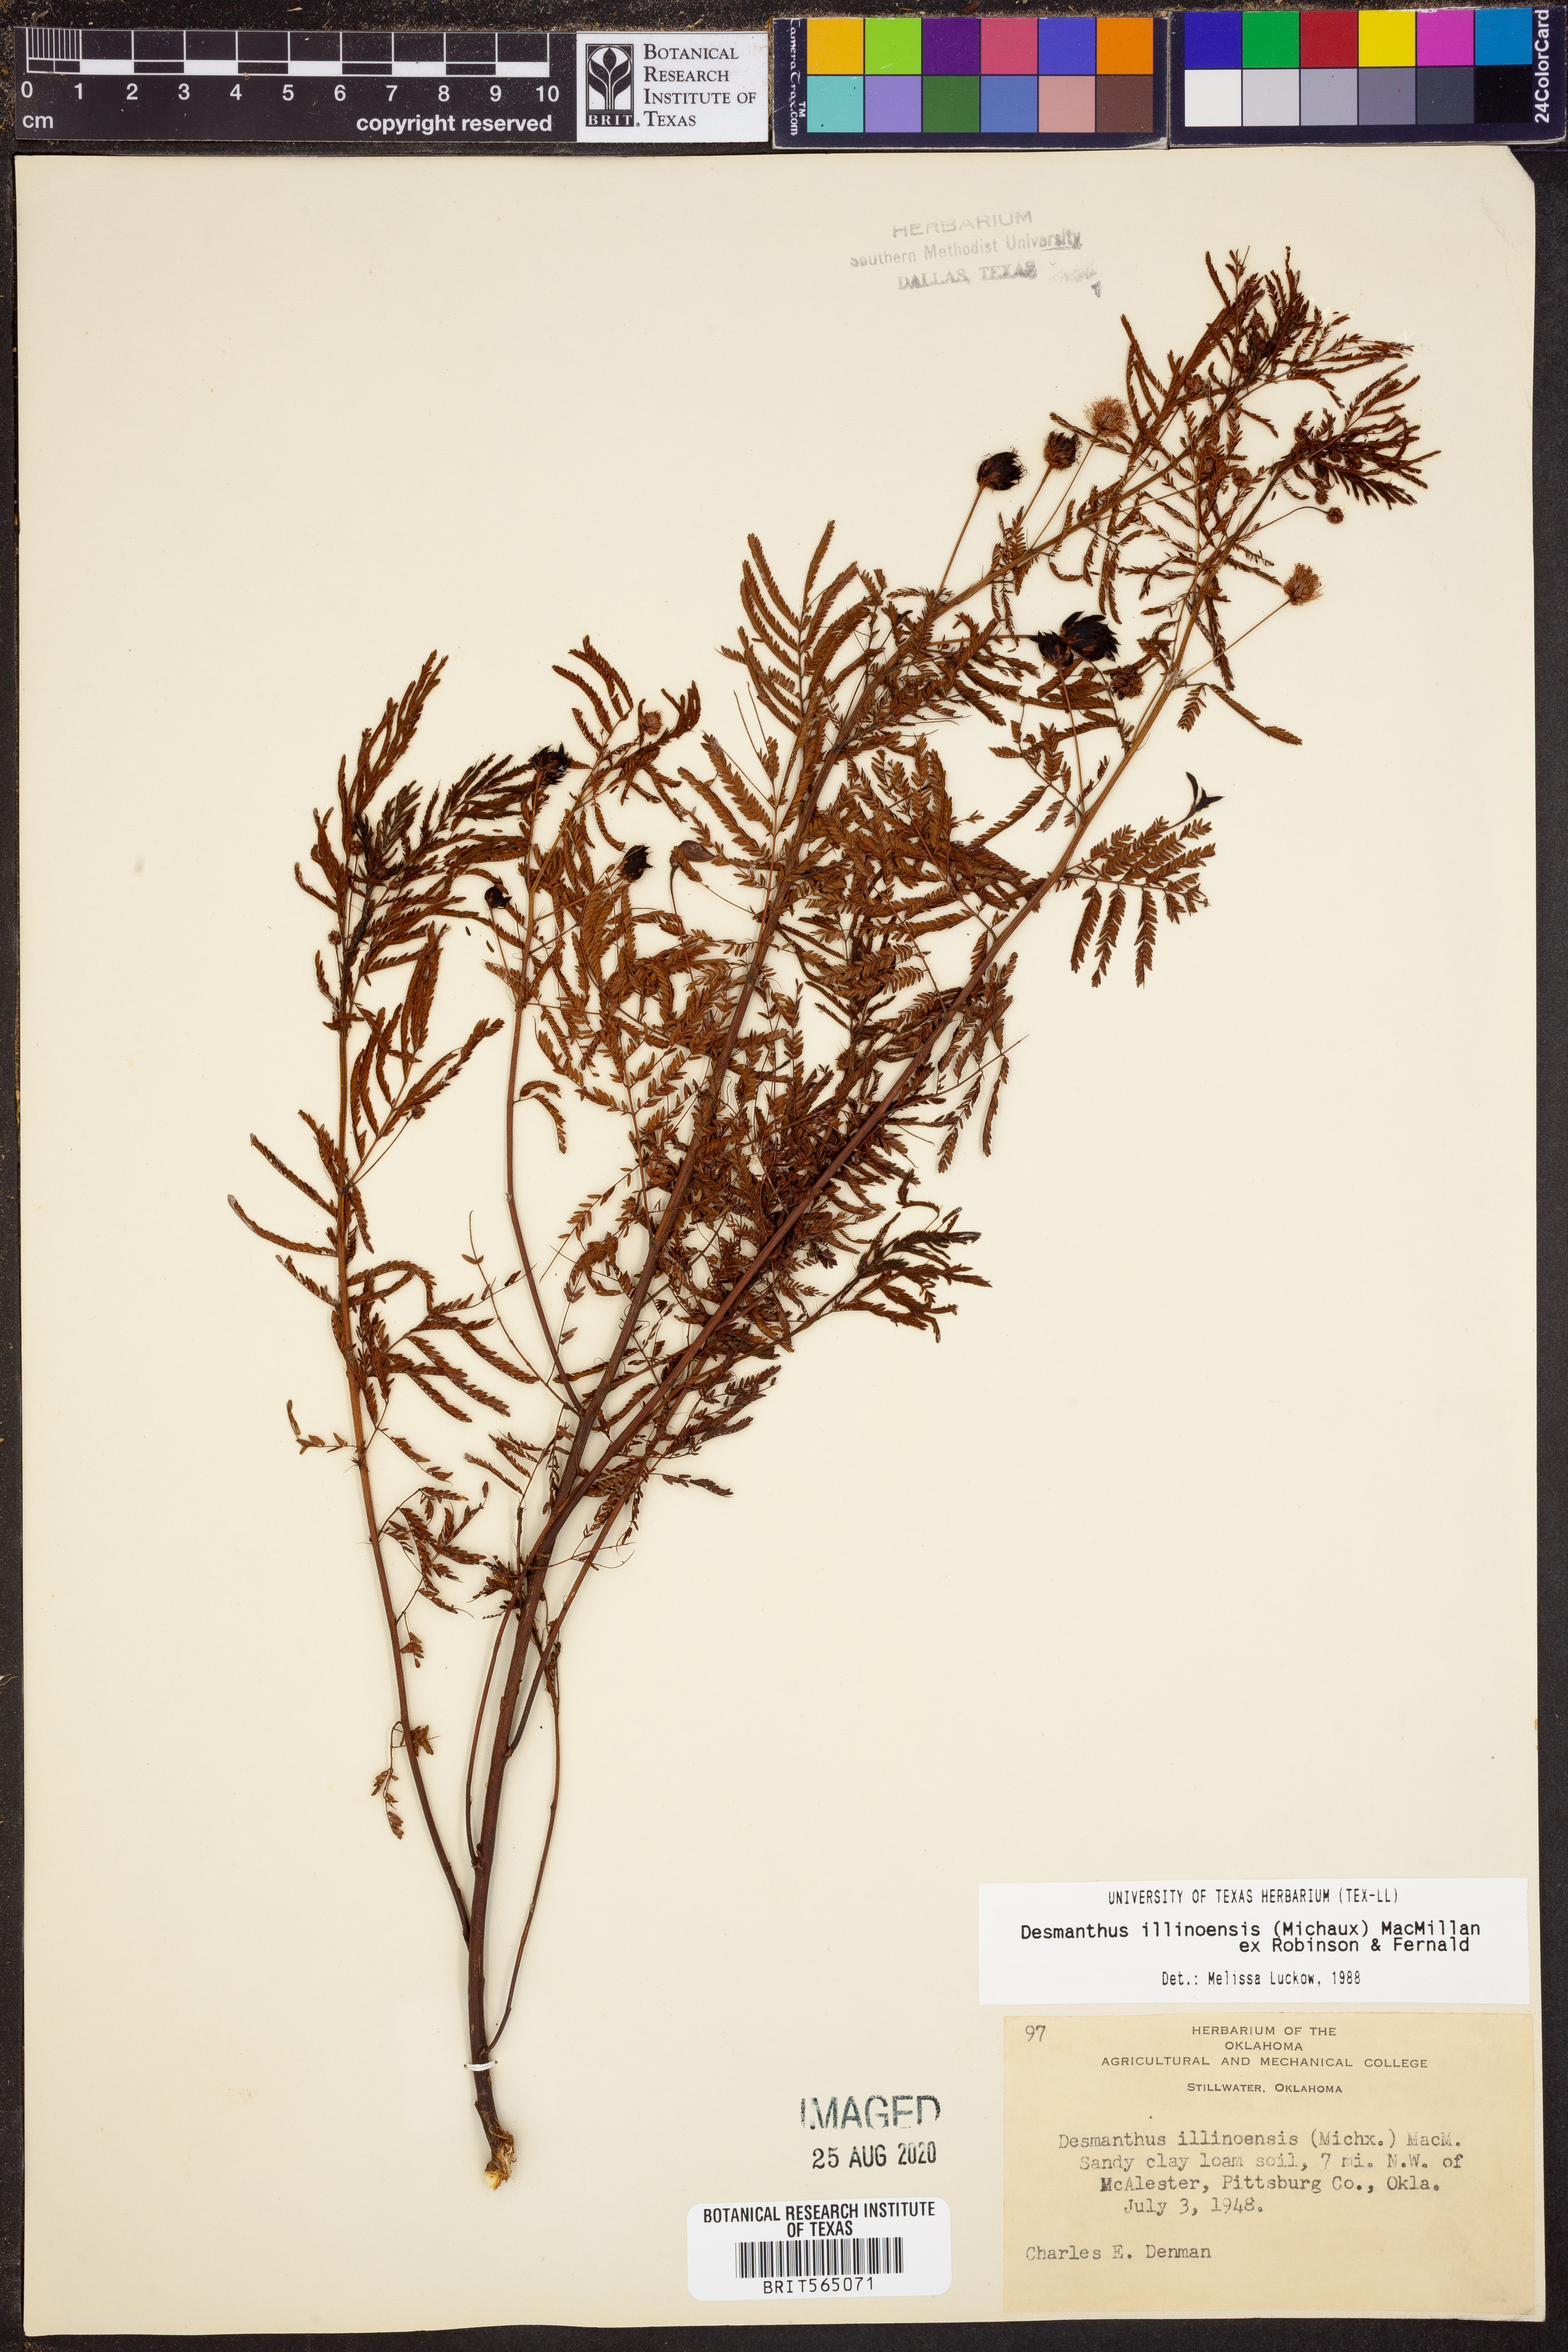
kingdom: Plantae
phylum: Tracheophyta
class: Magnoliopsida
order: Fabales
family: Fabaceae
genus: Desmanthus
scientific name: Desmanthus illinoensis
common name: Illinois bundle-flower
